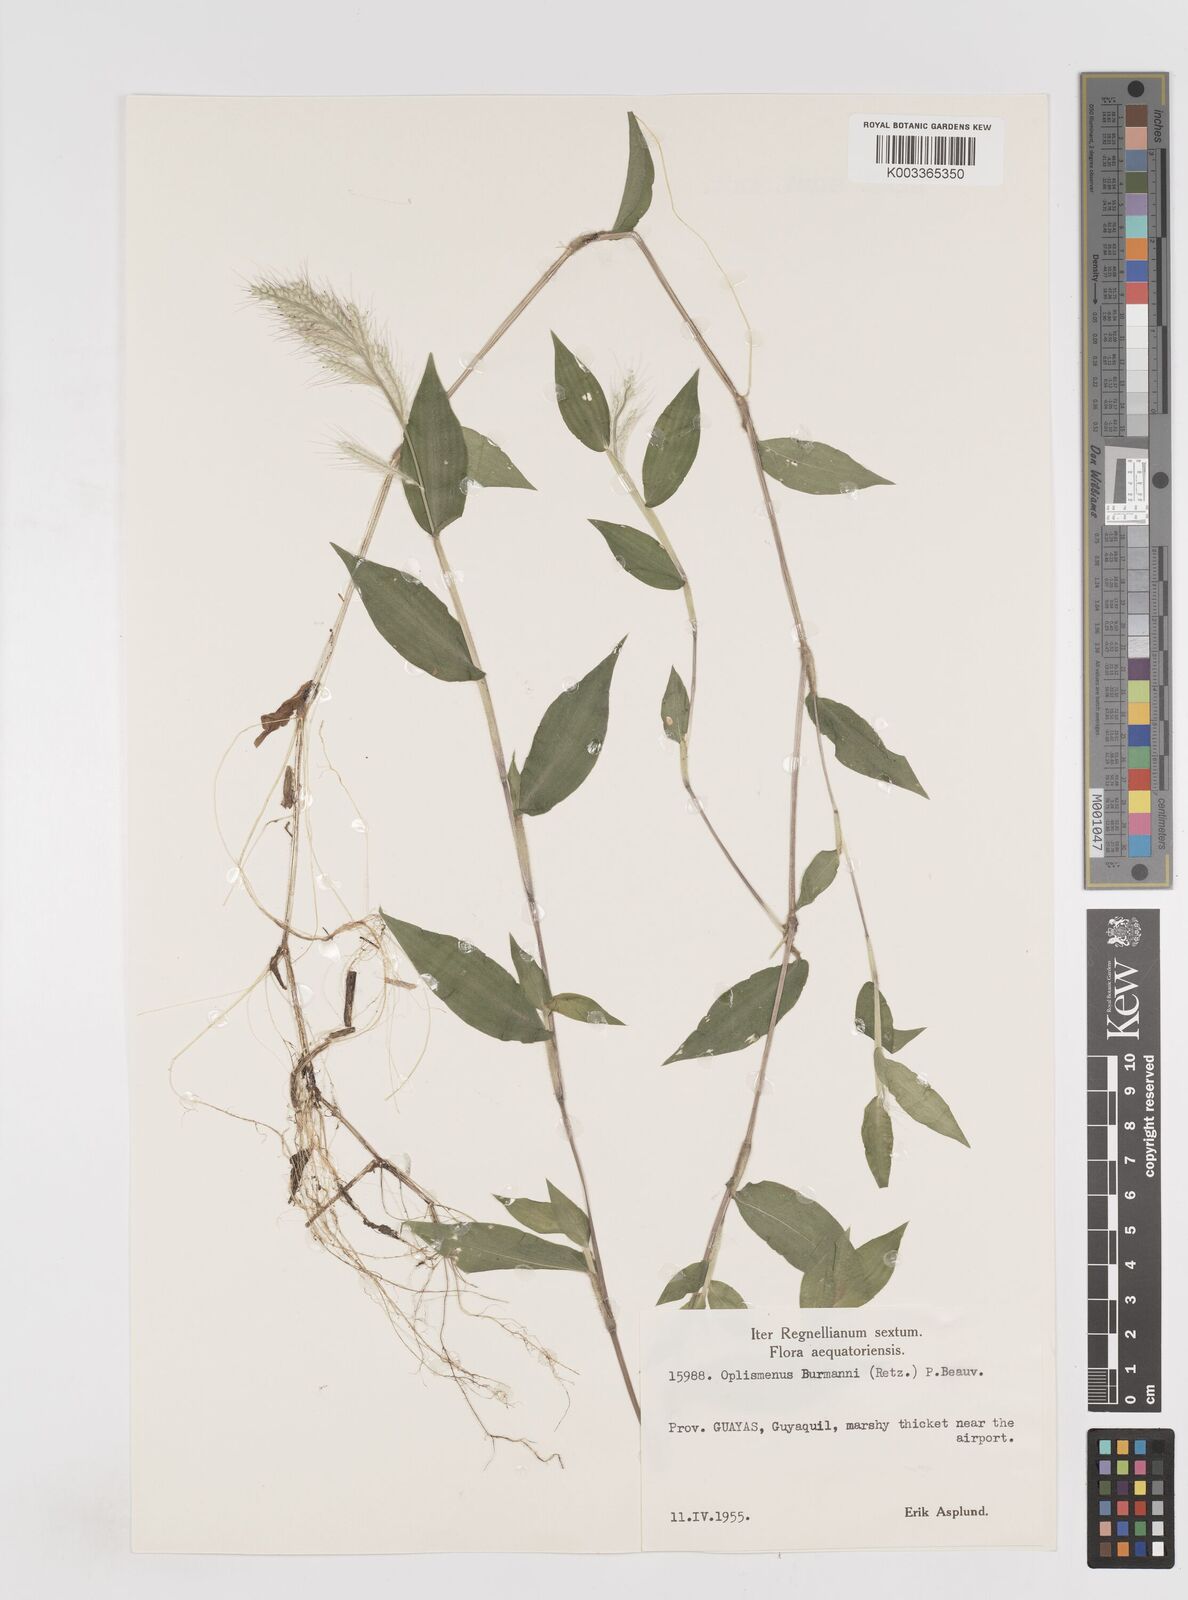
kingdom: Plantae
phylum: Tracheophyta
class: Liliopsida
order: Poales
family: Poaceae
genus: Oplismenus
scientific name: Oplismenus burmanni
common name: Burmann's basketgrass
